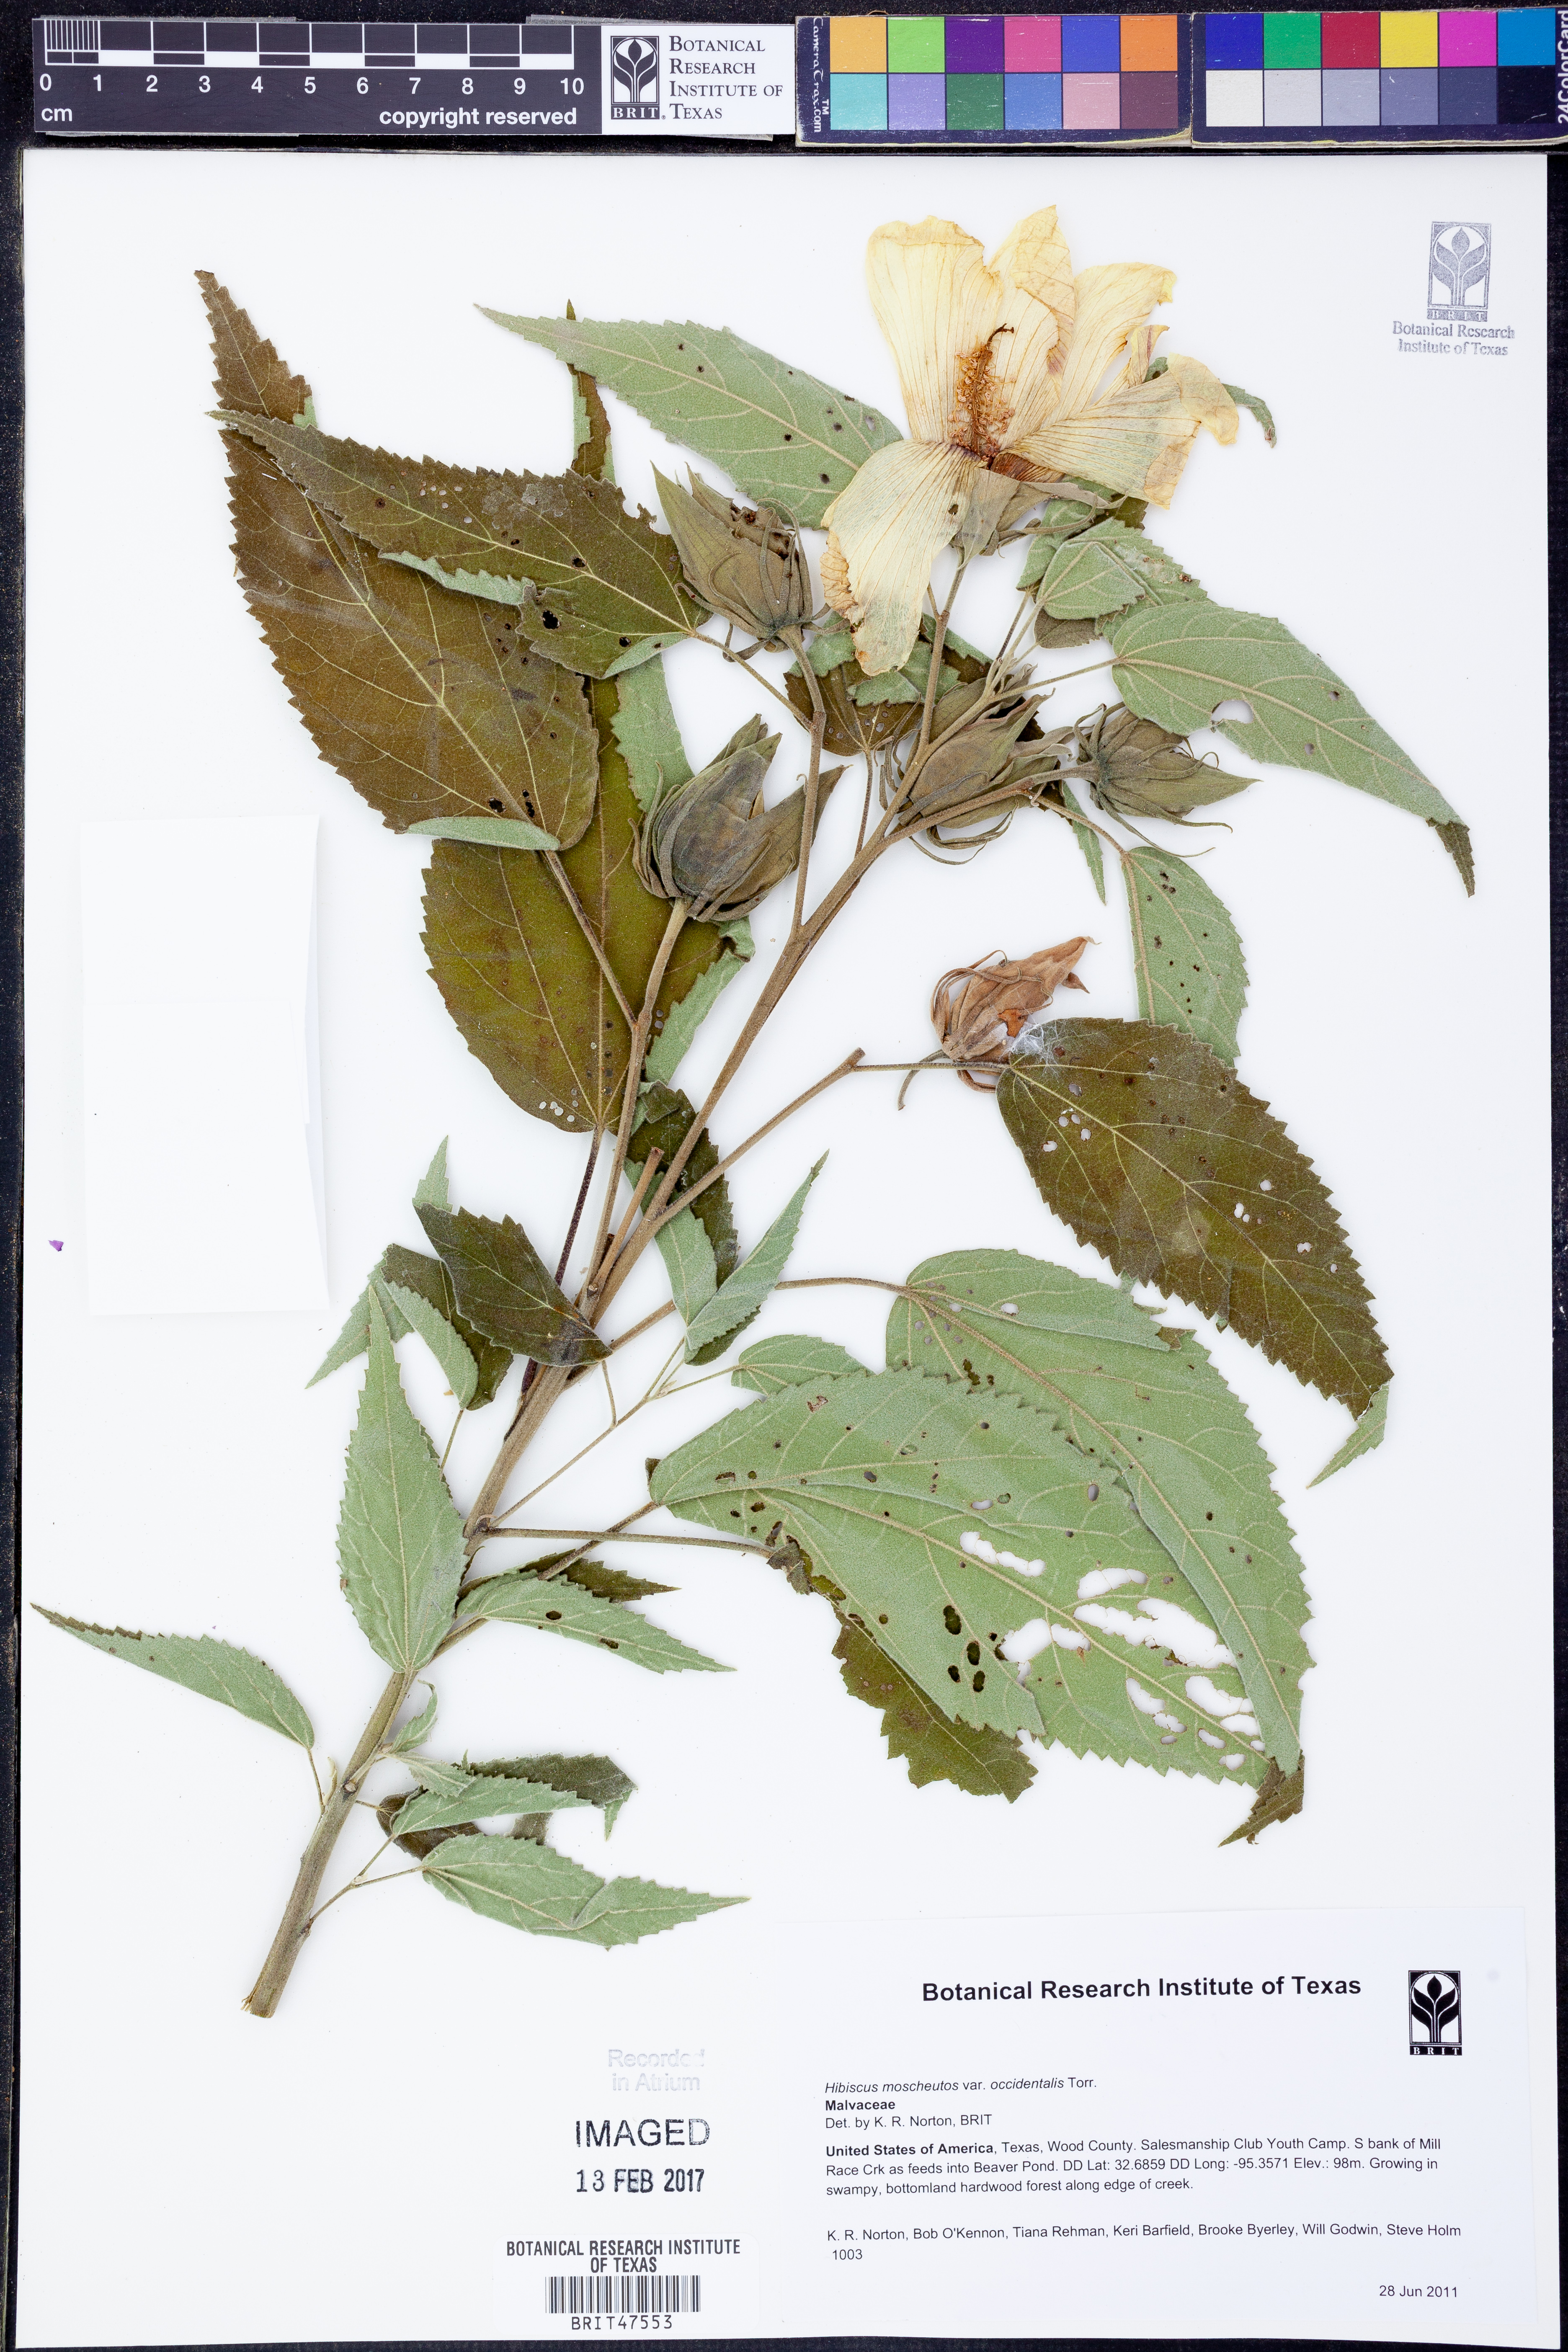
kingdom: Plantae
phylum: Tracheophyta
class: Magnoliopsida
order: Malvales
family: Malvaceae
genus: Hibiscus
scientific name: Hibiscus moscheutos
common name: Common rose-mallow
